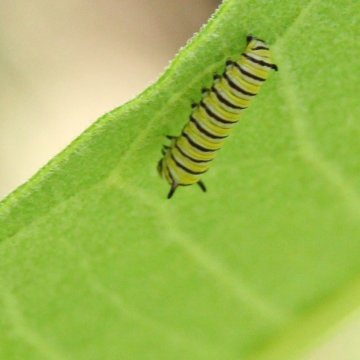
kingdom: Animalia
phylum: Arthropoda
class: Insecta
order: Lepidoptera
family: Nymphalidae
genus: Danaus
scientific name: Danaus plexippus
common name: Monarch
